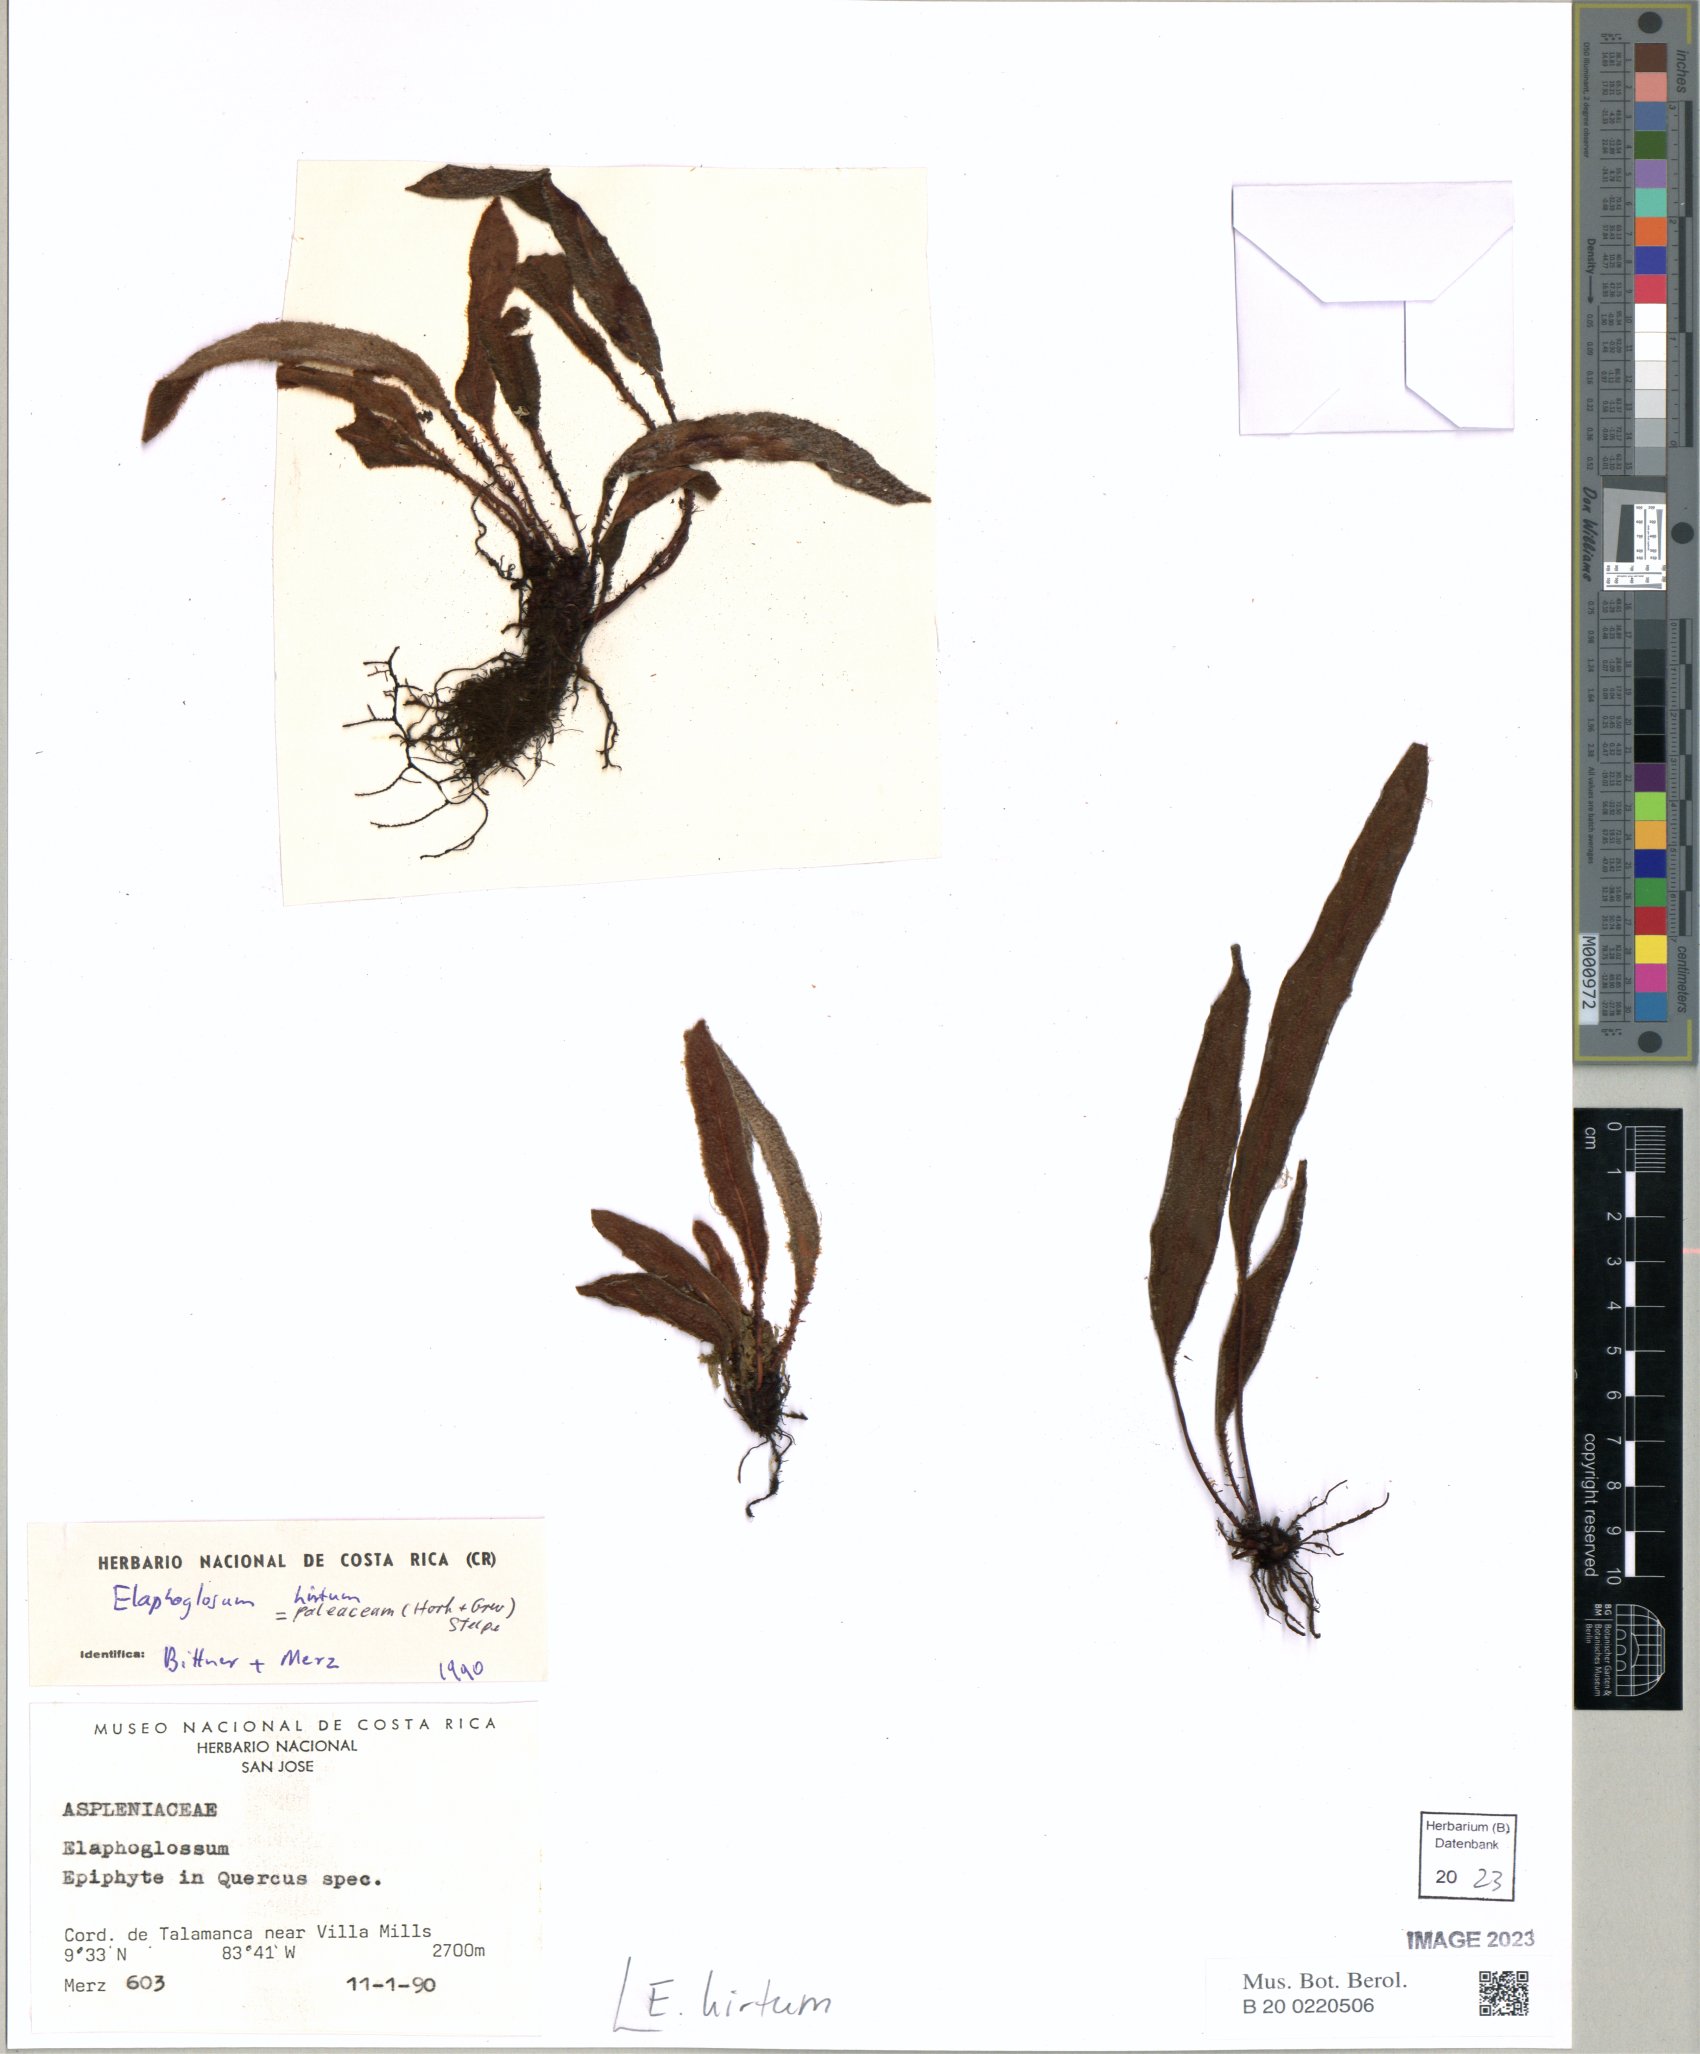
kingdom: Plantae
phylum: Tracheophyta
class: Polypodiopsida
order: Polypodiales
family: Dryopteridaceae
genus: Elaphoglossum
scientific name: Elaphoglossum paleaceum
